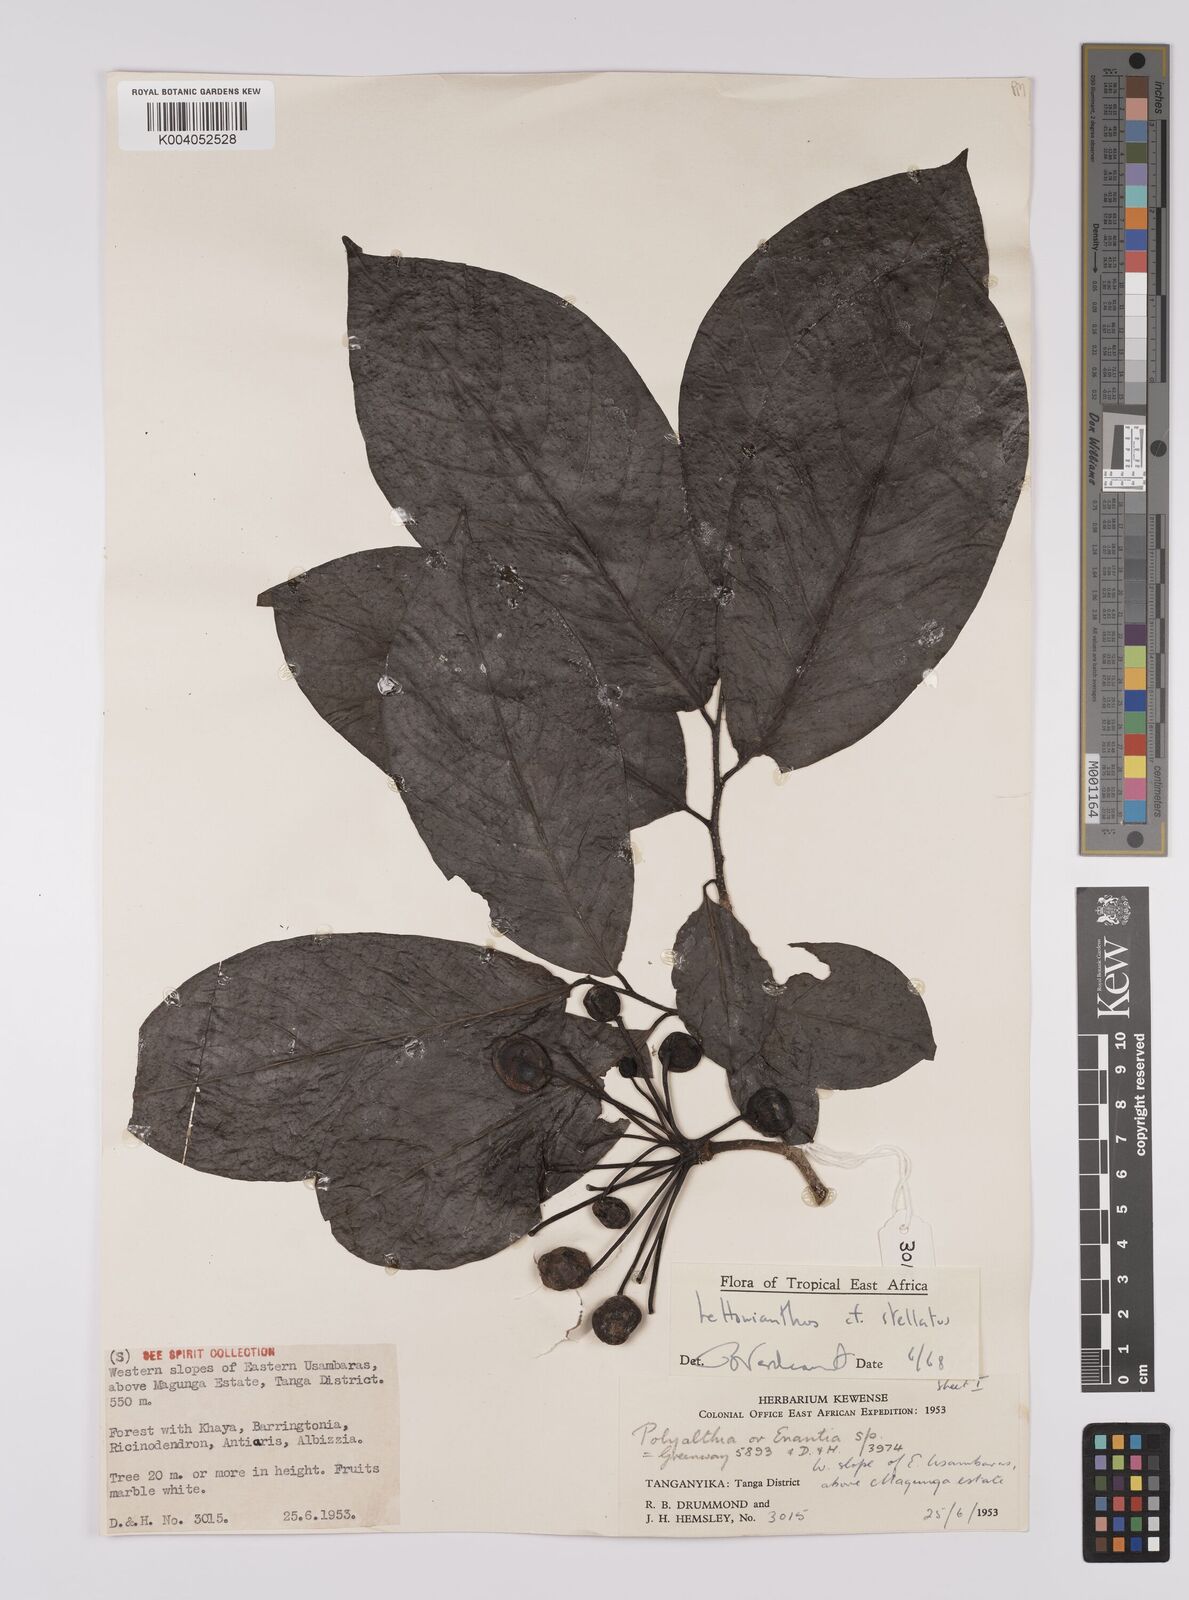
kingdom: Plantae
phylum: Tracheophyta
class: Magnoliopsida
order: Magnoliales
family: Annonaceae
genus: Lettowianthus
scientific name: Lettowianthus
